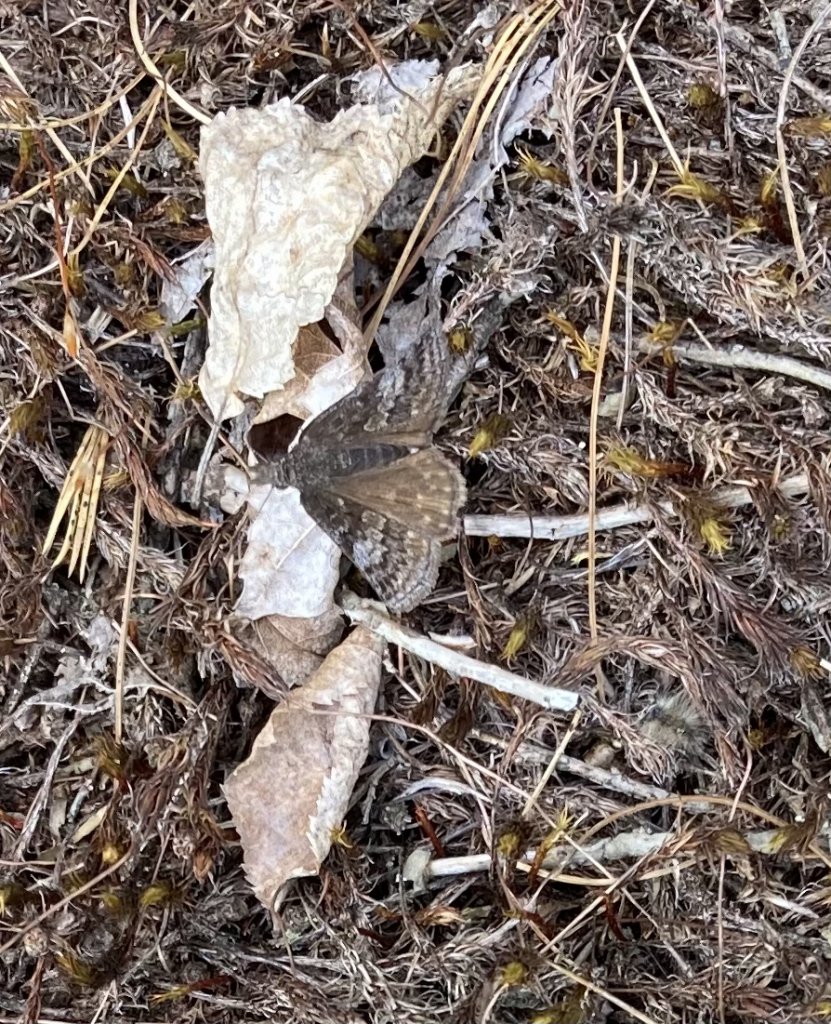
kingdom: Animalia
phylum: Arthropoda
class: Insecta
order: Lepidoptera
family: Hesperiidae
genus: Erynnis
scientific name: Erynnis icelus
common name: Dreamy Duskywing
